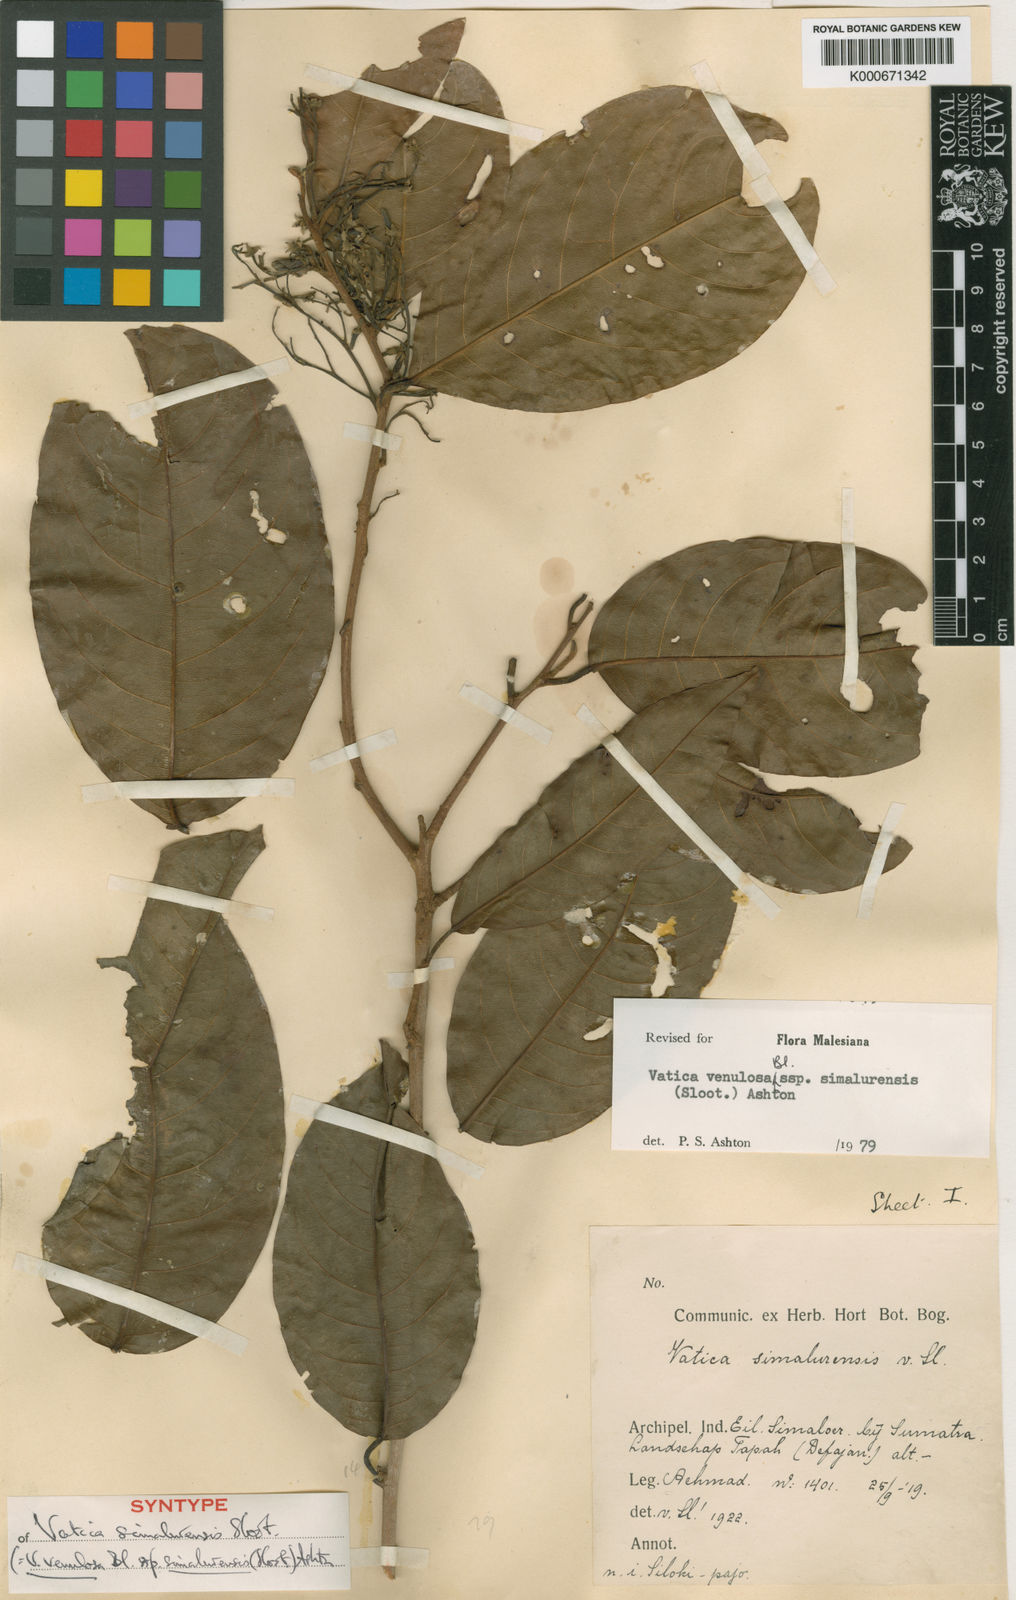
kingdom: Plantae
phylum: Tracheophyta
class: Magnoliopsida
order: Malvales
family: Dipterocarpaceae
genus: Vatica
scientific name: Vatica venulosa
